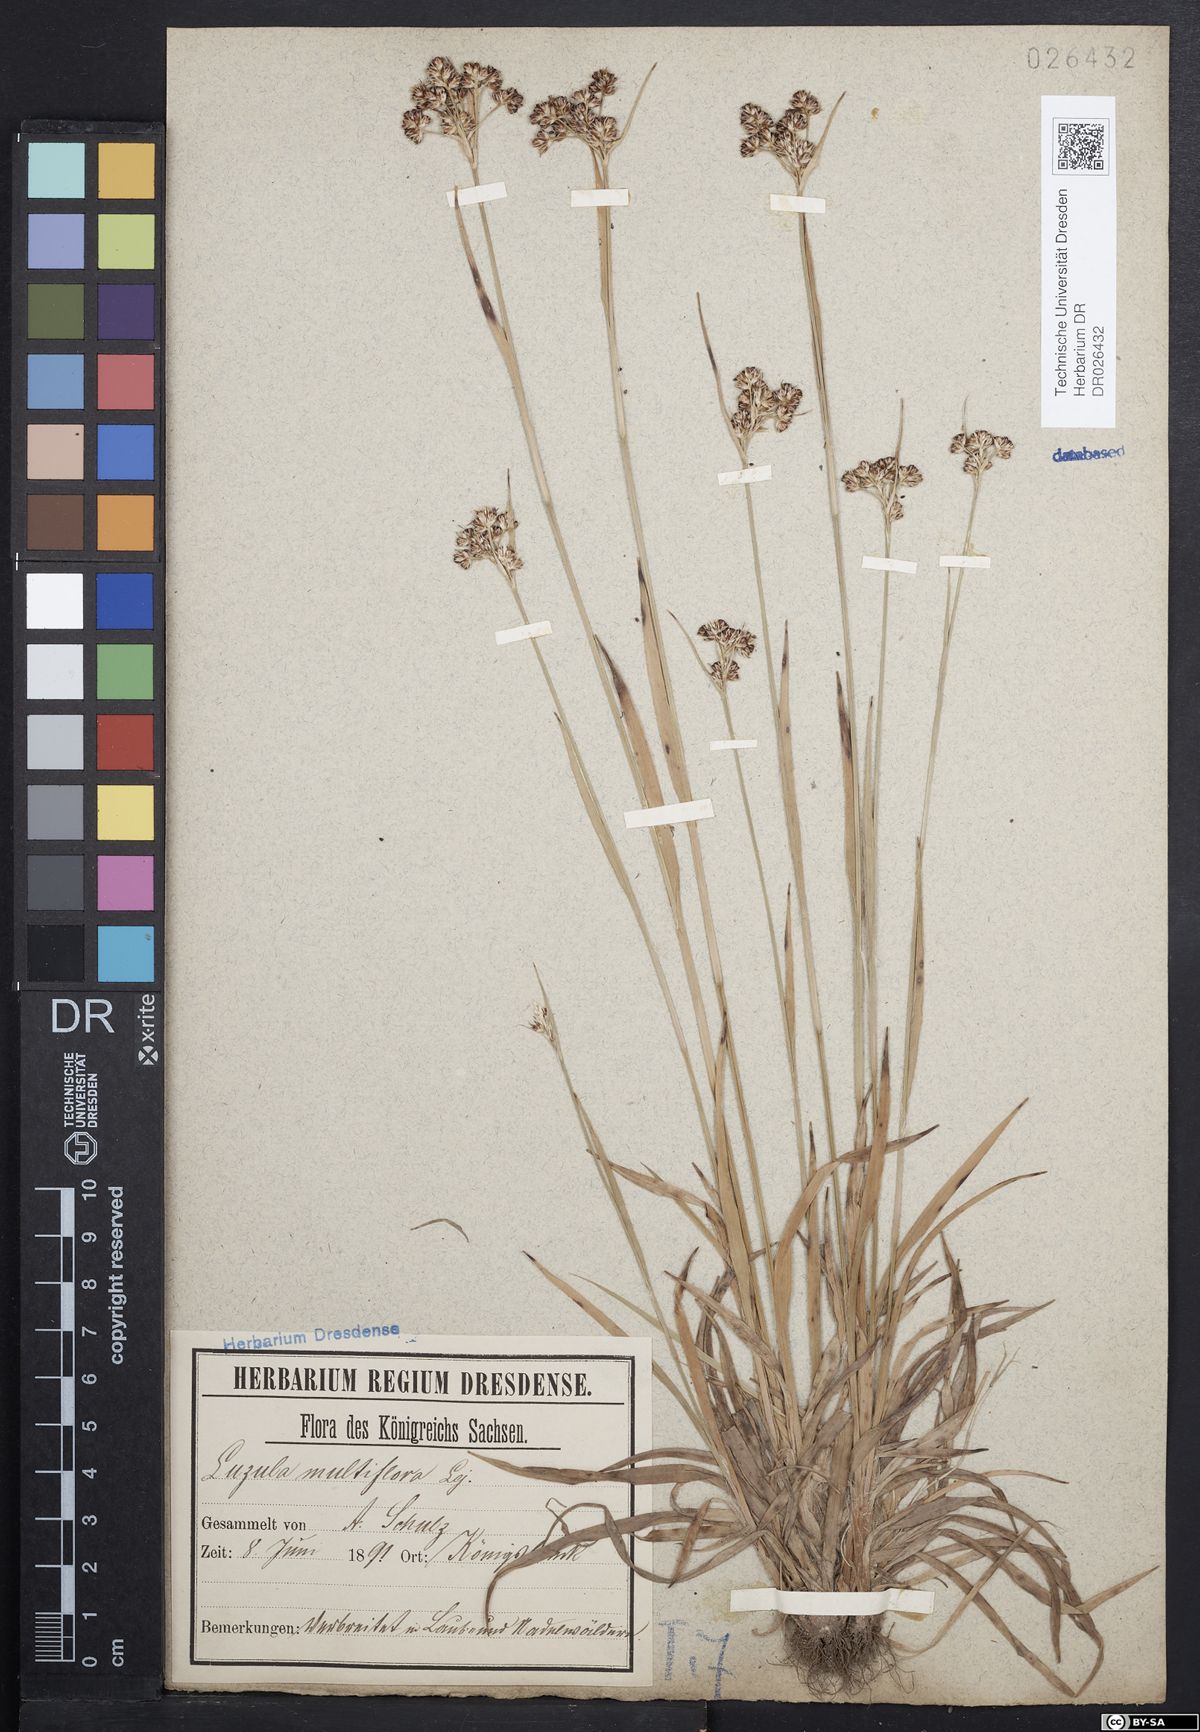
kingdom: Plantae
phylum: Tracheophyta
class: Liliopsida
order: Poales
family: Juncaceae
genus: Luzula
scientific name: Luzula multiflora
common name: Heath wood-rush
